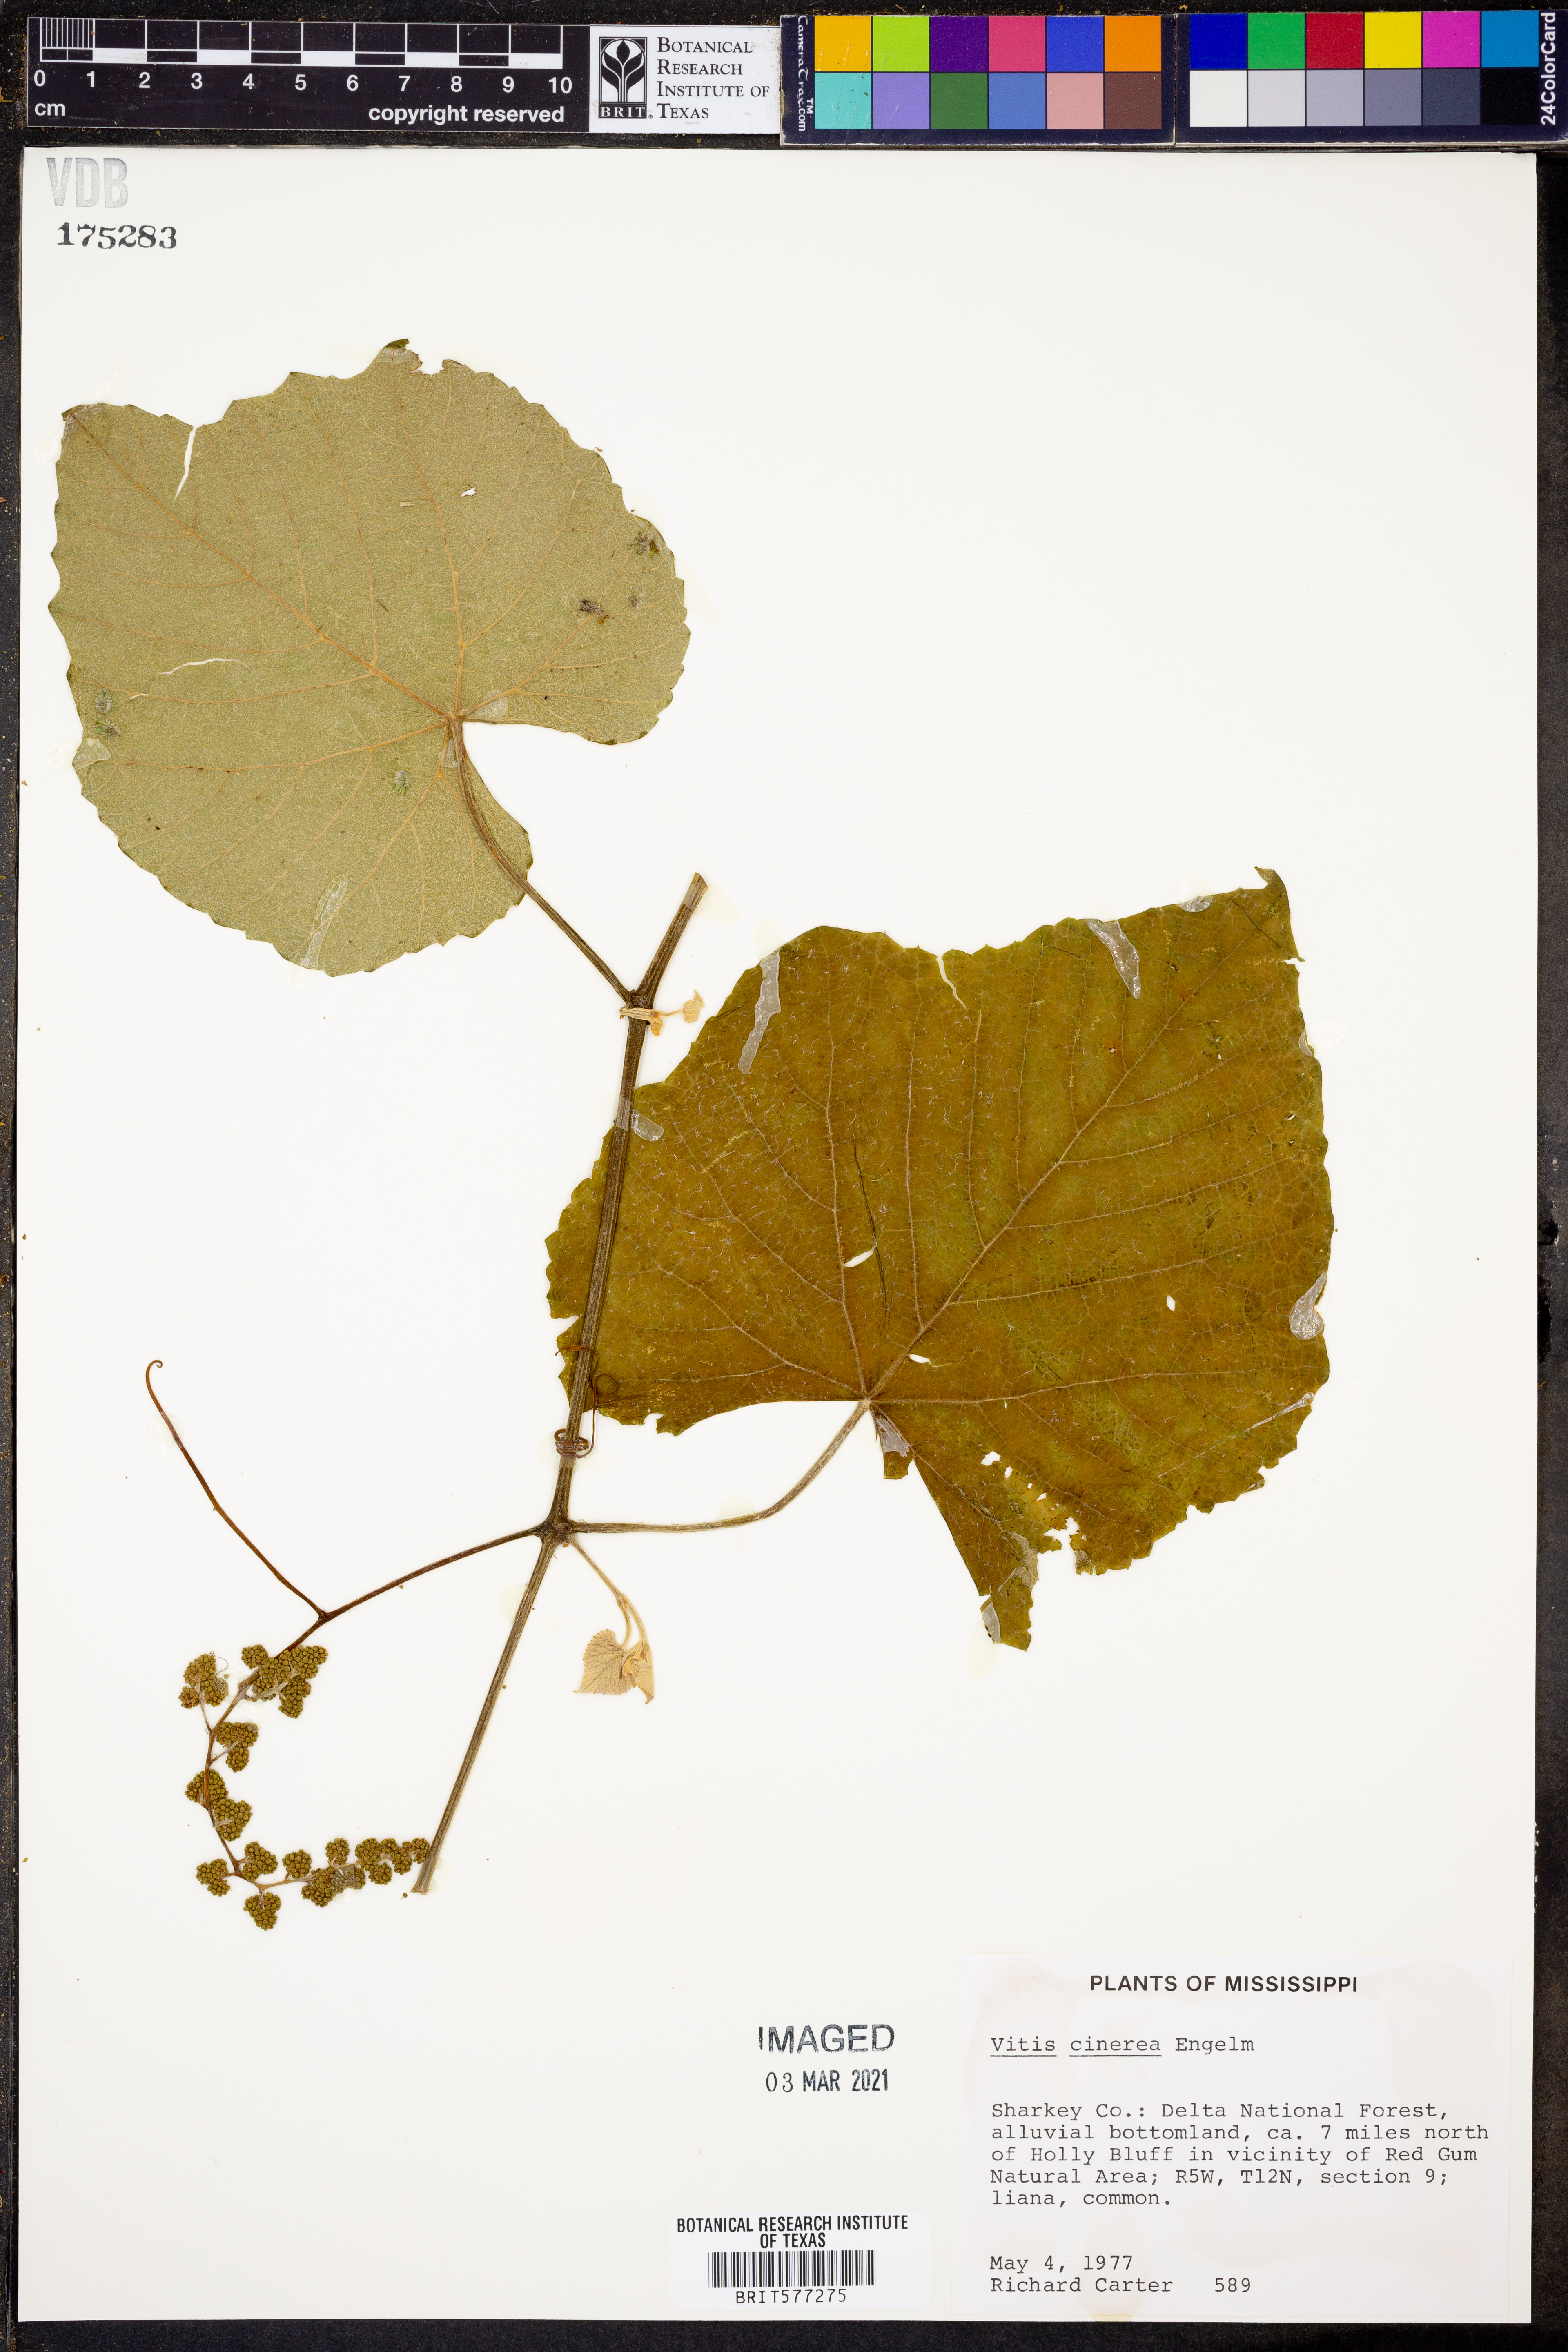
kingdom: Plantae
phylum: Tracheophyta
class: Magnoliopsida
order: Vitales
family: Vitaceae
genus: Vitis
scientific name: Vitis cinerea
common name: Ashy grape
